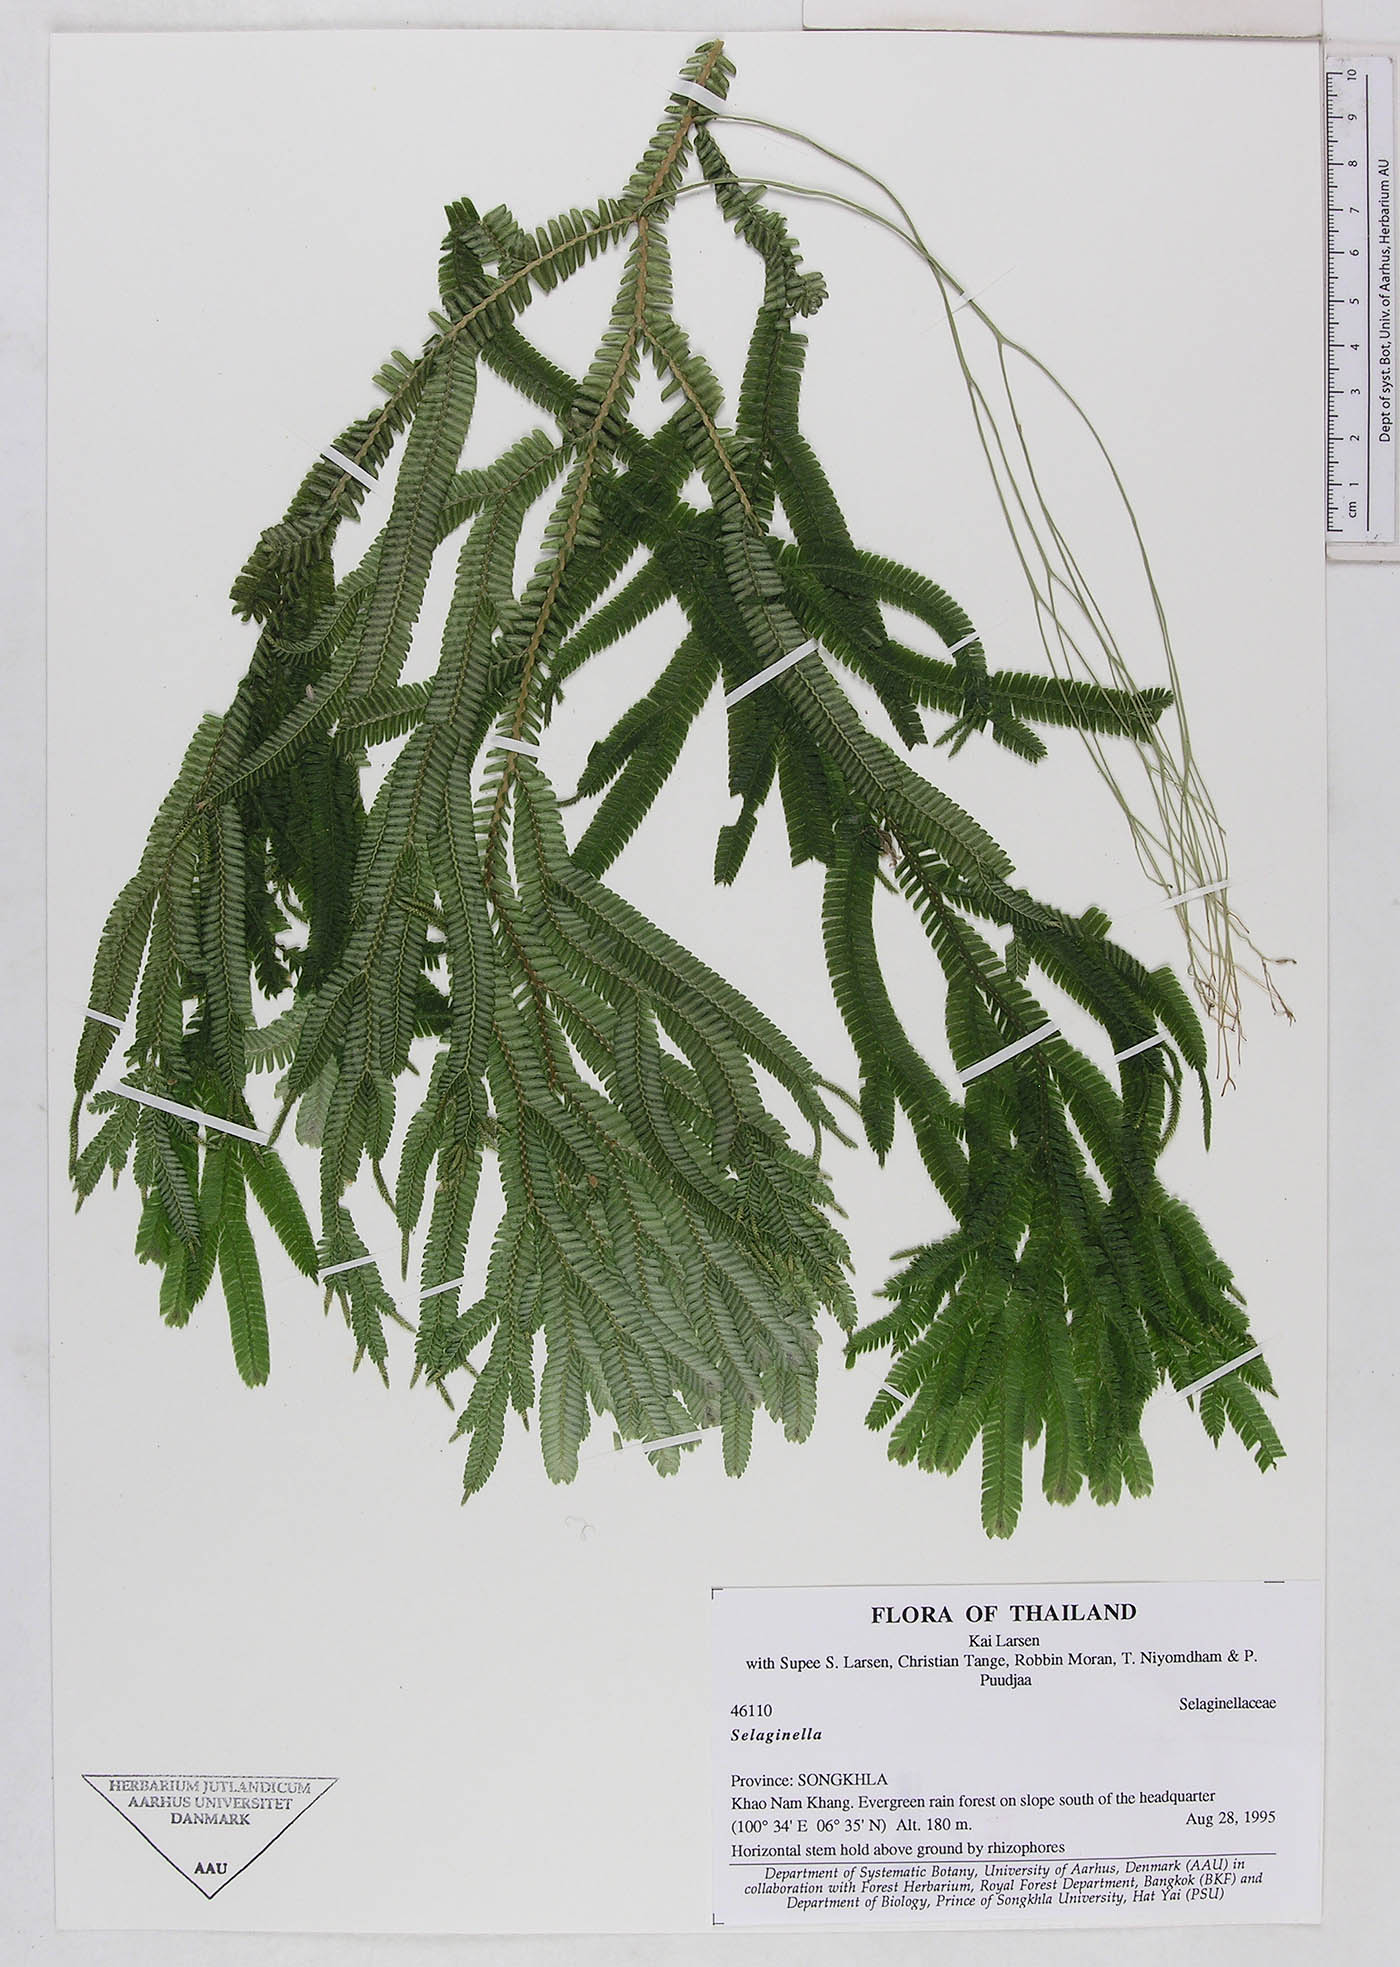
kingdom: Plantae
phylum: Tracheophyta
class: Lycopodiopsida
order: Selaginellales
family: Selaginellaceae
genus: Selaginella
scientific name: Selaginella
